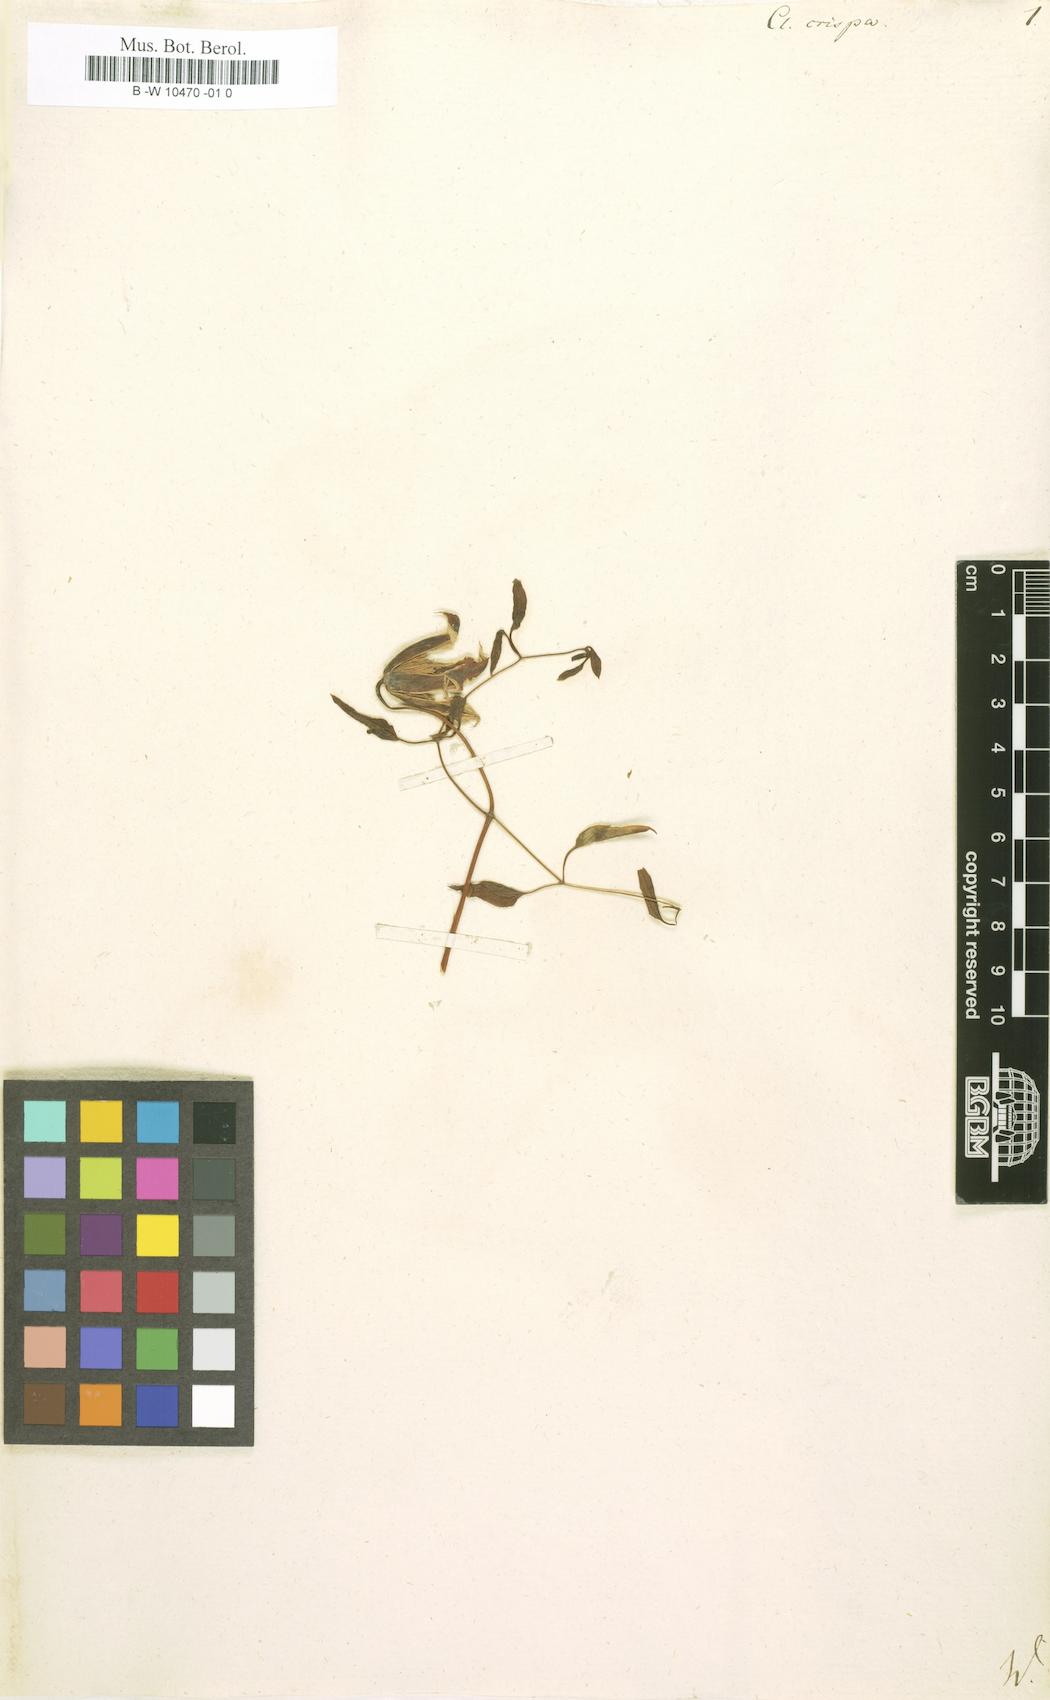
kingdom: Plantae
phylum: Tracheophyta
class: Magnoliopsida
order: Ranunculales
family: Ranunculaceae
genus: Clematis
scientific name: Clematis crispa
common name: Curly clematis
